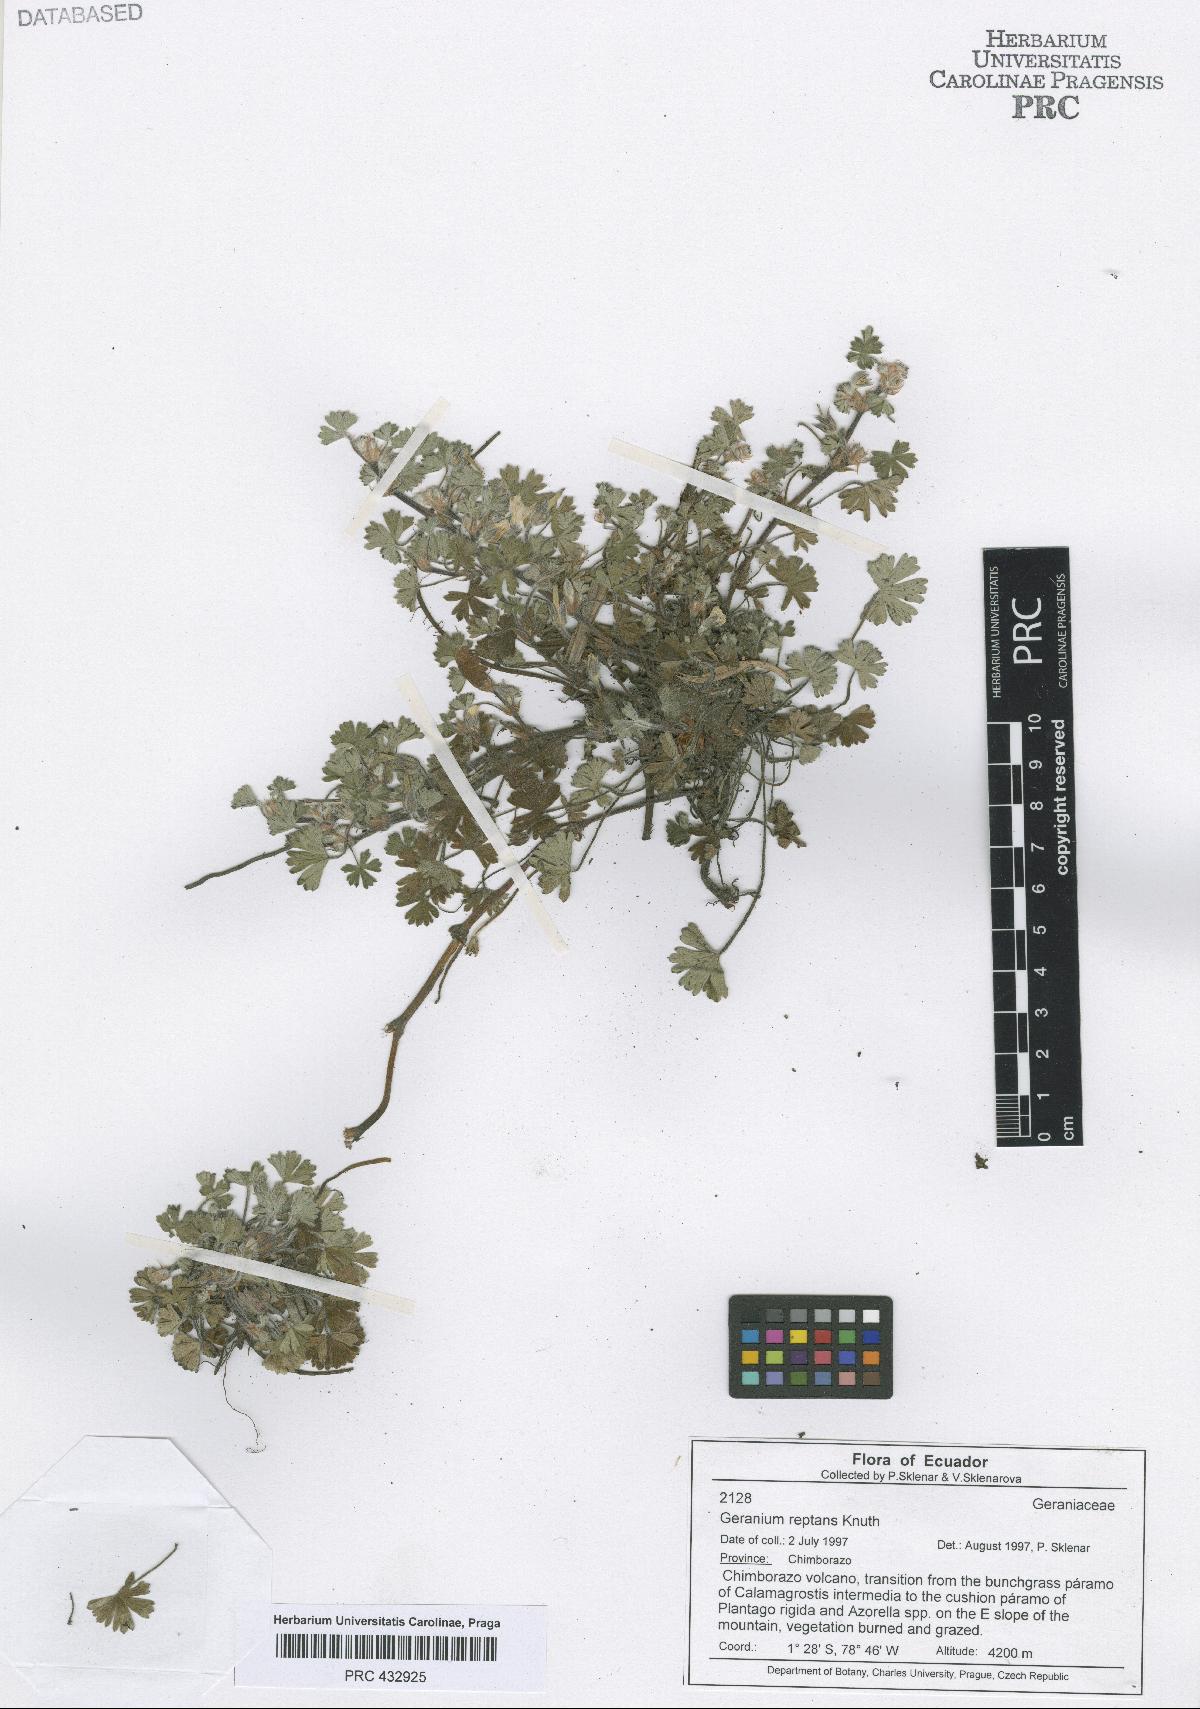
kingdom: Plantae
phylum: Tracheophyta
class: Magnoliopsida
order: Geraniales
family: Geraniaceae
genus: Geranium
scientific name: Geranium reptans
